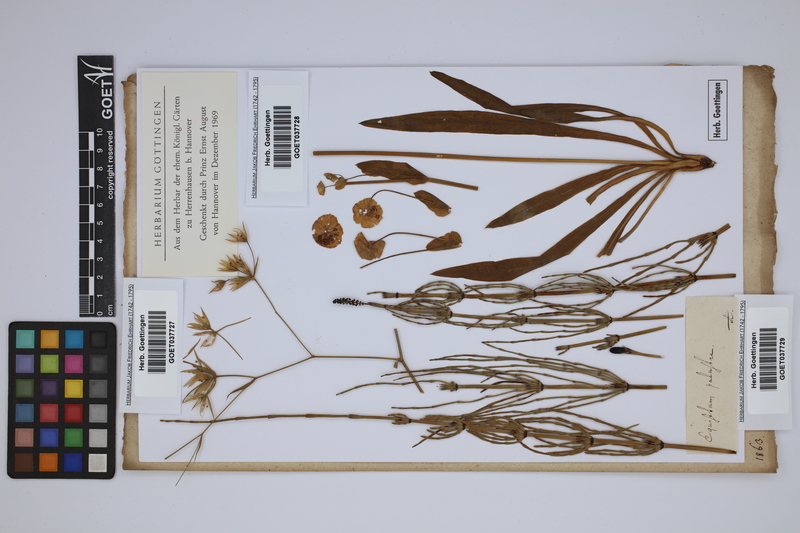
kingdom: Plantae
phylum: Tracheophyta
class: Polypodiopsida
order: Equisetales
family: Equisetaceae
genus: Equisetum
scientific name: Equisetum palustre
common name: Marsh horsetail
